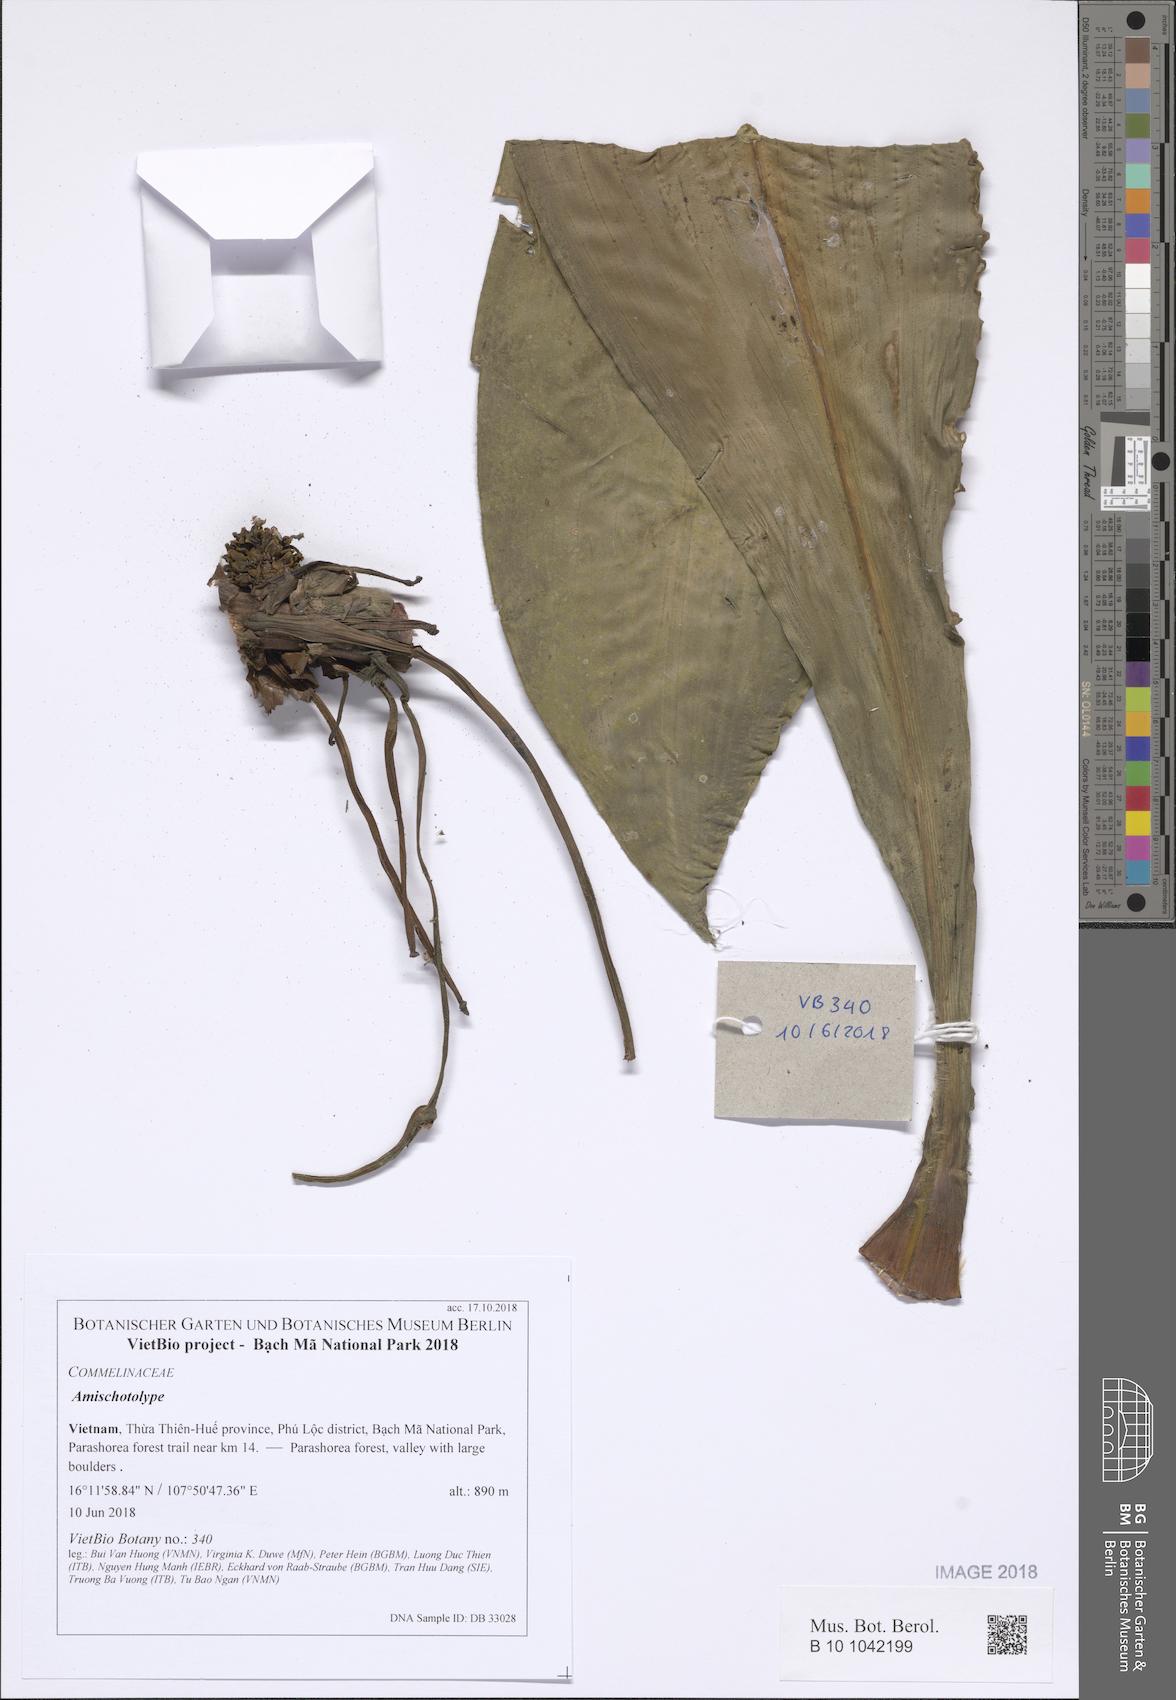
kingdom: Plantae
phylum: Tracheophyta
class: Liliopsida
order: Commelinales
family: Commelinaceae
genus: Amischotolype
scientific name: Amischotolype
